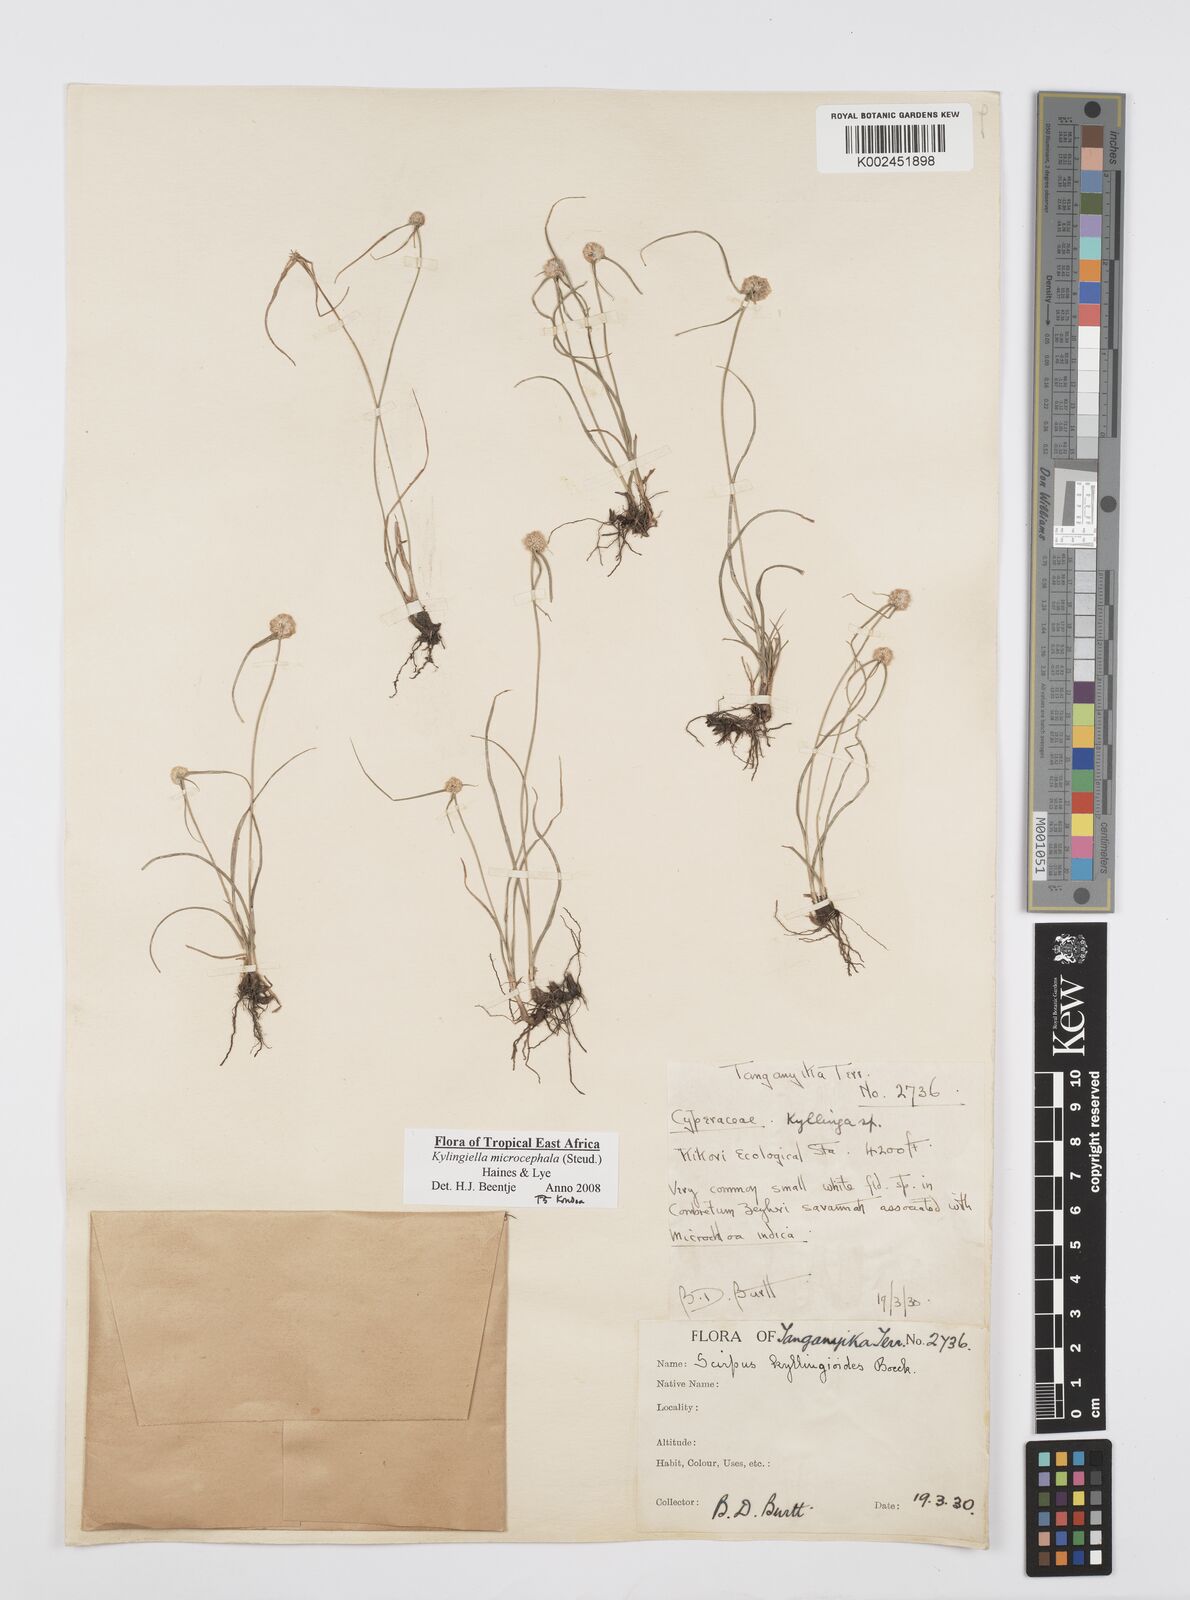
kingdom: Plantae
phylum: Tracheophyta
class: Liliopsida
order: Poales
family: Cyperaceae
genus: Cyperus
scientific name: Cyperus microcephalus
